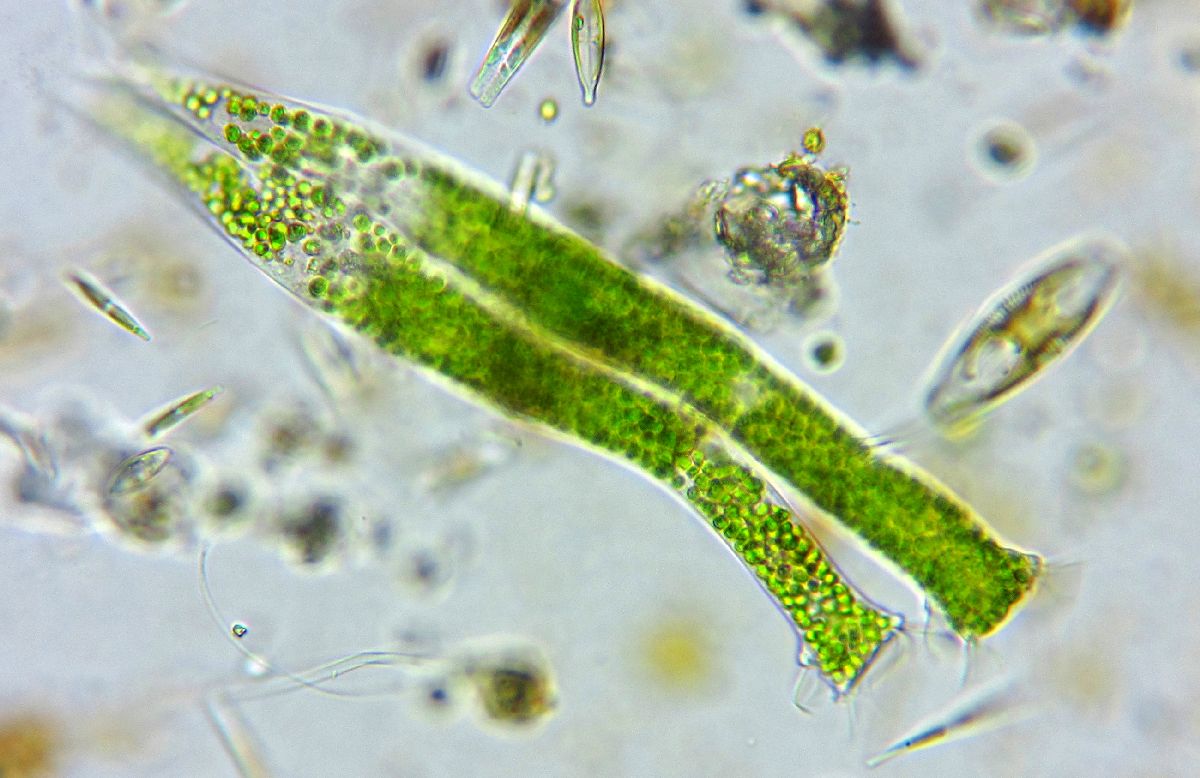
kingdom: Chromista
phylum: Ciliophora
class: Oligohymenophorea
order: Peritrichida
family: Ophrydiidae
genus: Ophrydium
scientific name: Ophrydium versatile
